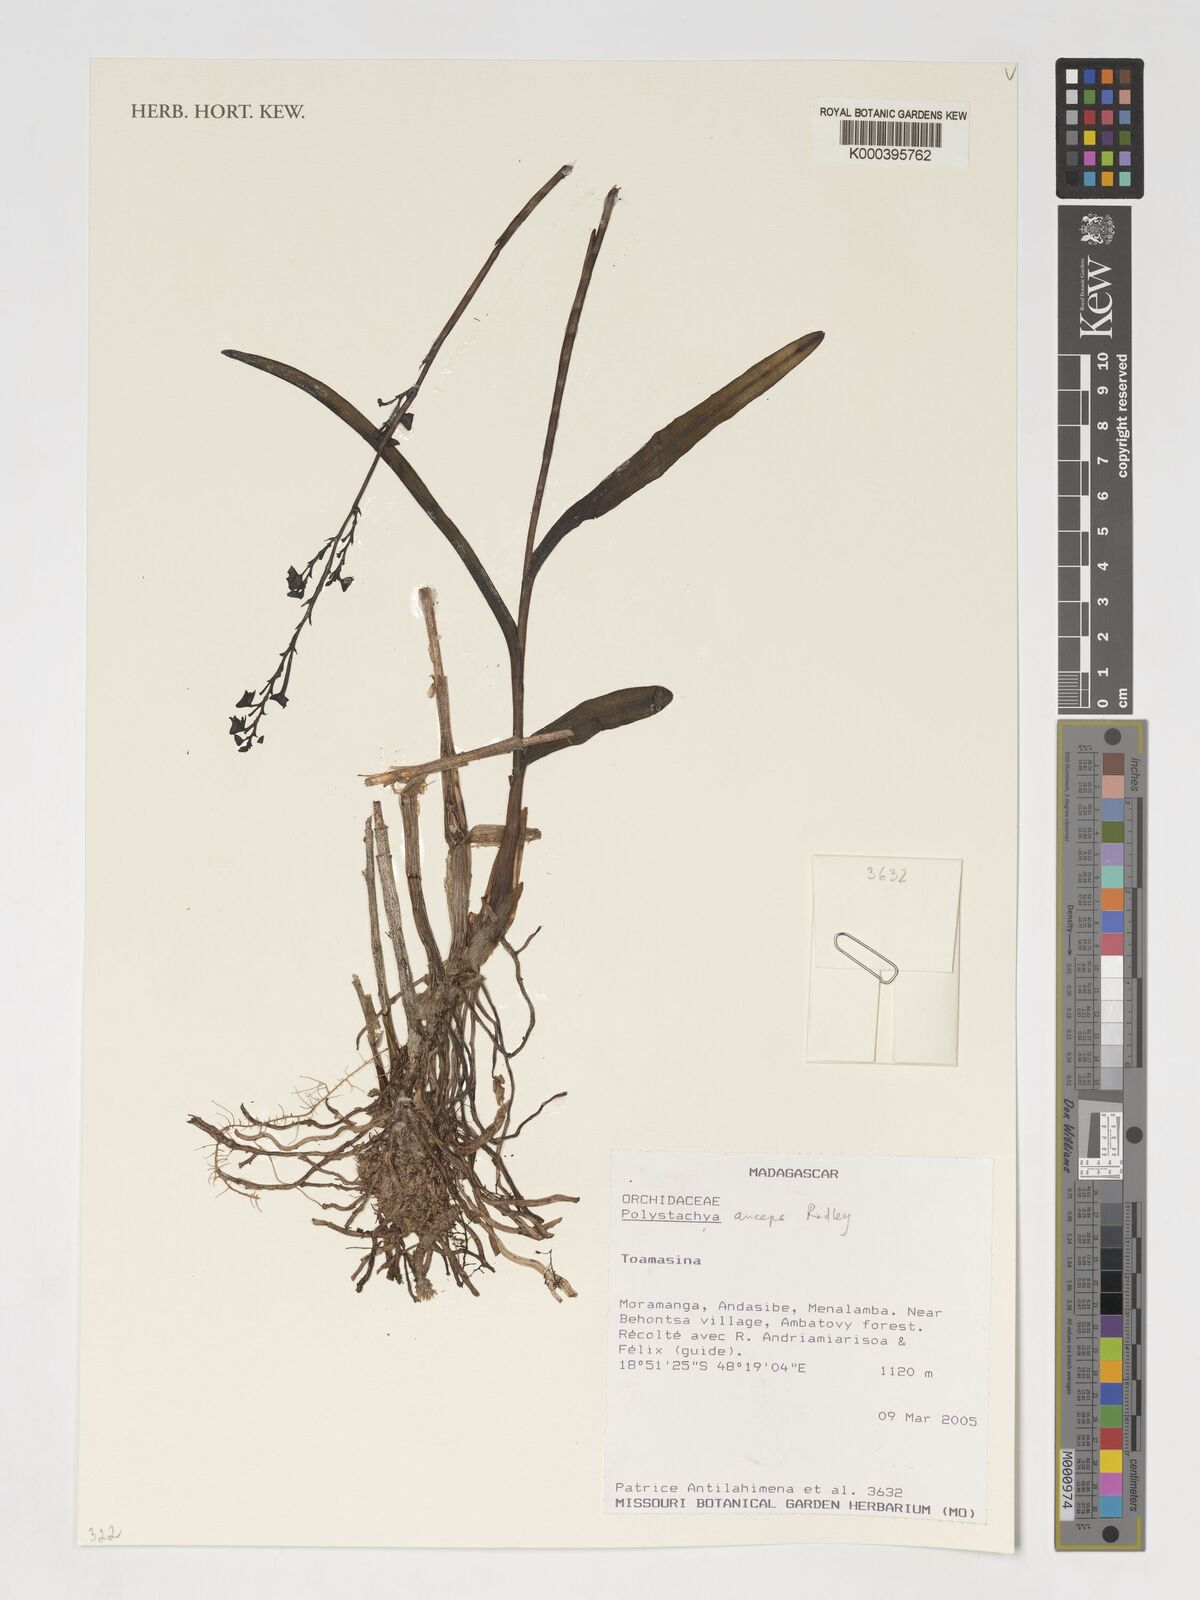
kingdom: Plantae
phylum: Tracheophyta
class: Liliopsida
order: Asparagales
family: Orchidaceae
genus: Polystachya
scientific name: Polystachya anceps
